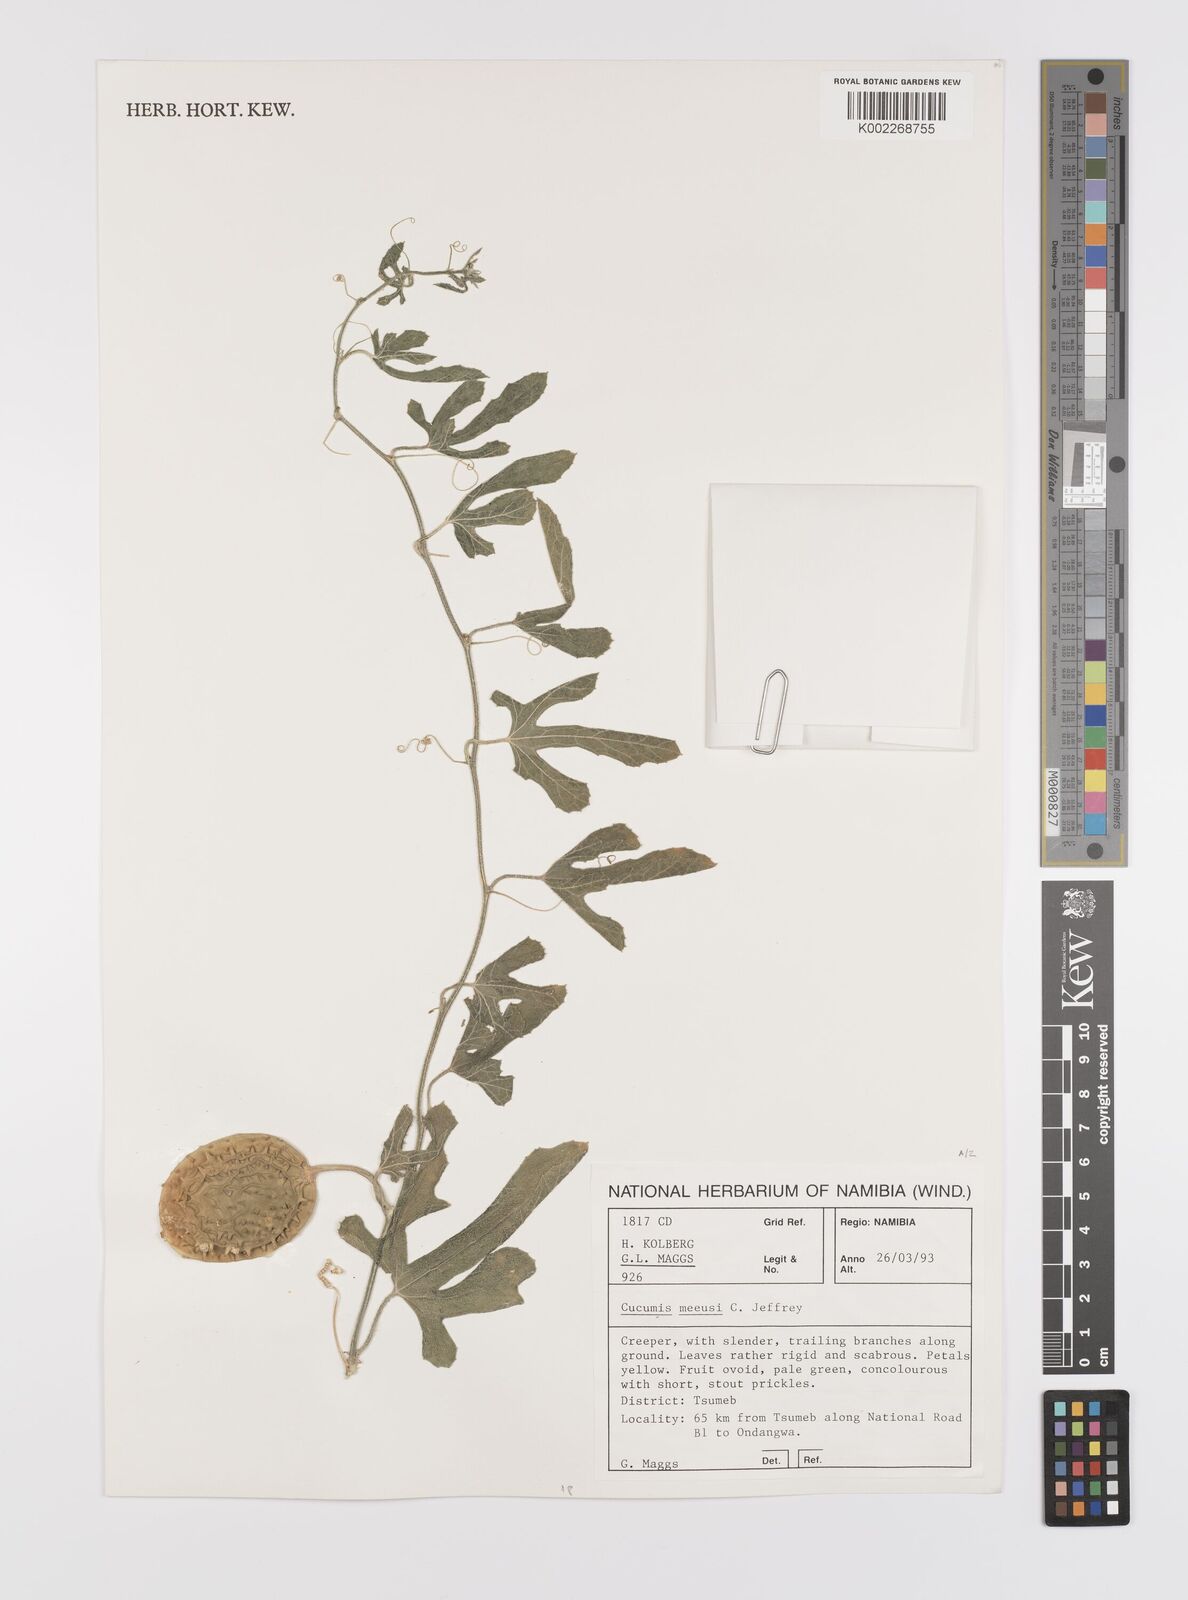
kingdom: Plantae
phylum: Tracheophyta
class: Magnoliopsida
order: Cucurbitales
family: Cucurbitaceae
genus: Cucumis
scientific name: Cucumis meeusei
